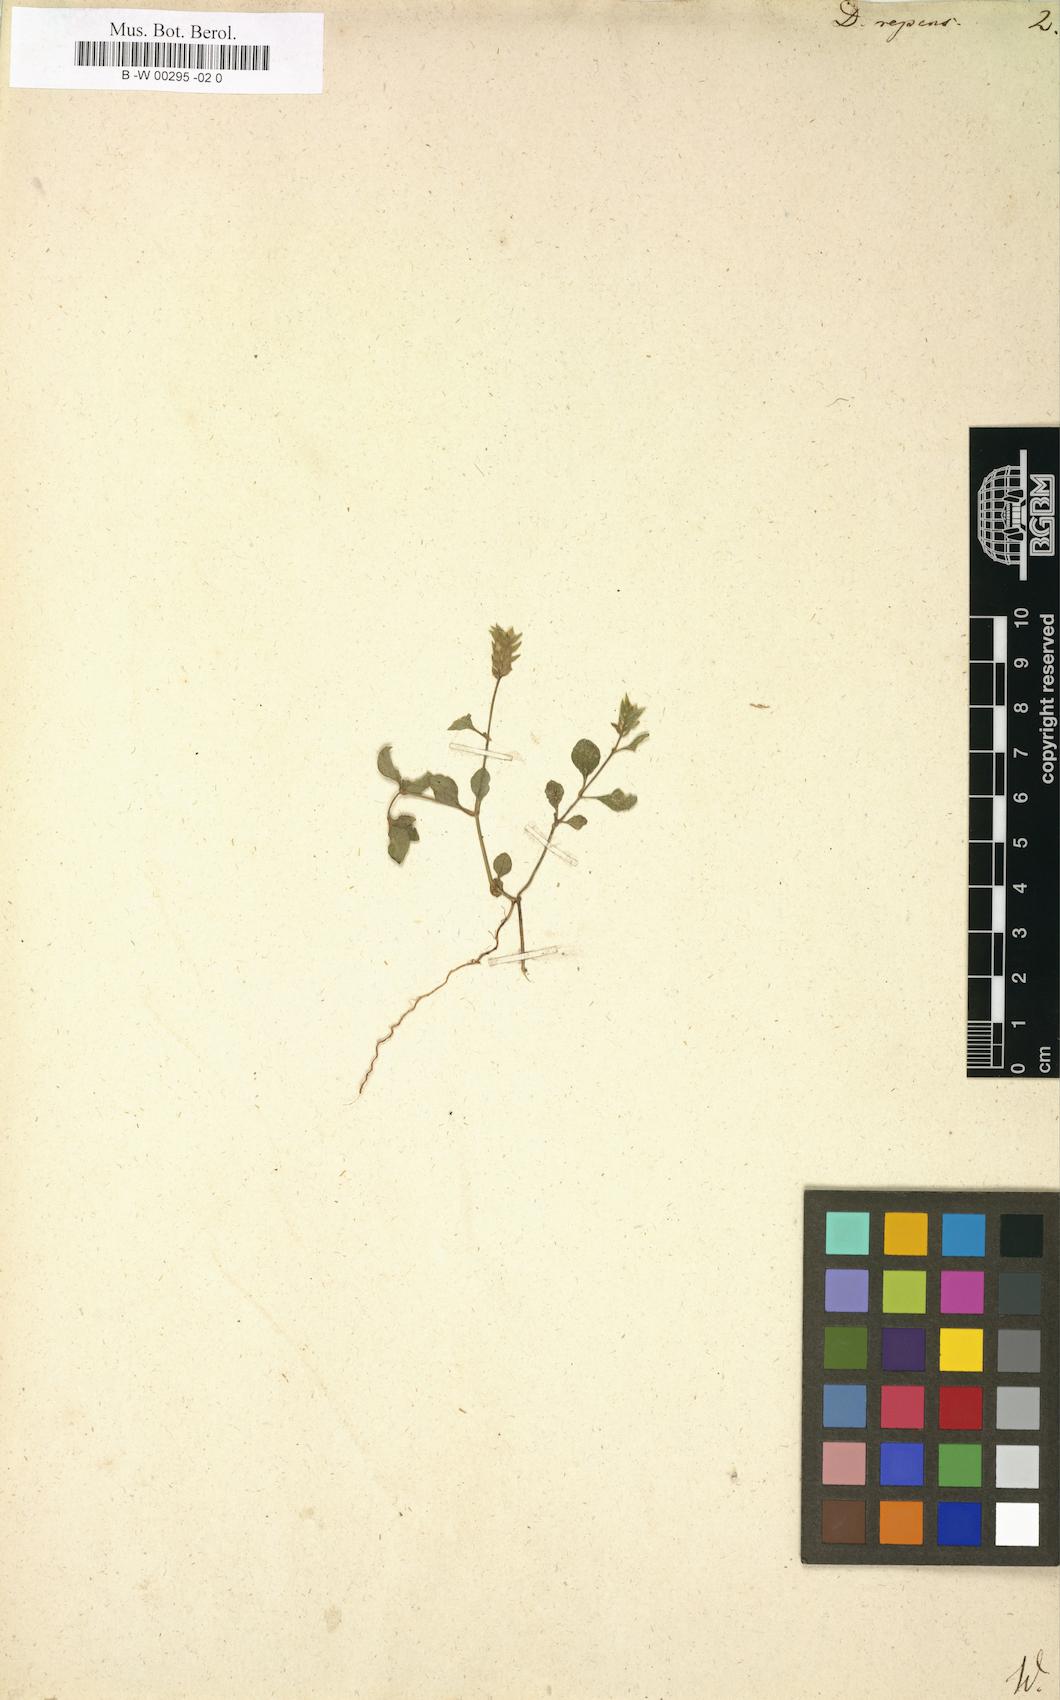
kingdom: Plantae
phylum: Tracheophyta
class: Magnoliopsida
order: Lamiales
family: Acanthaceae
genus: Rungia
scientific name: Rungia repens
